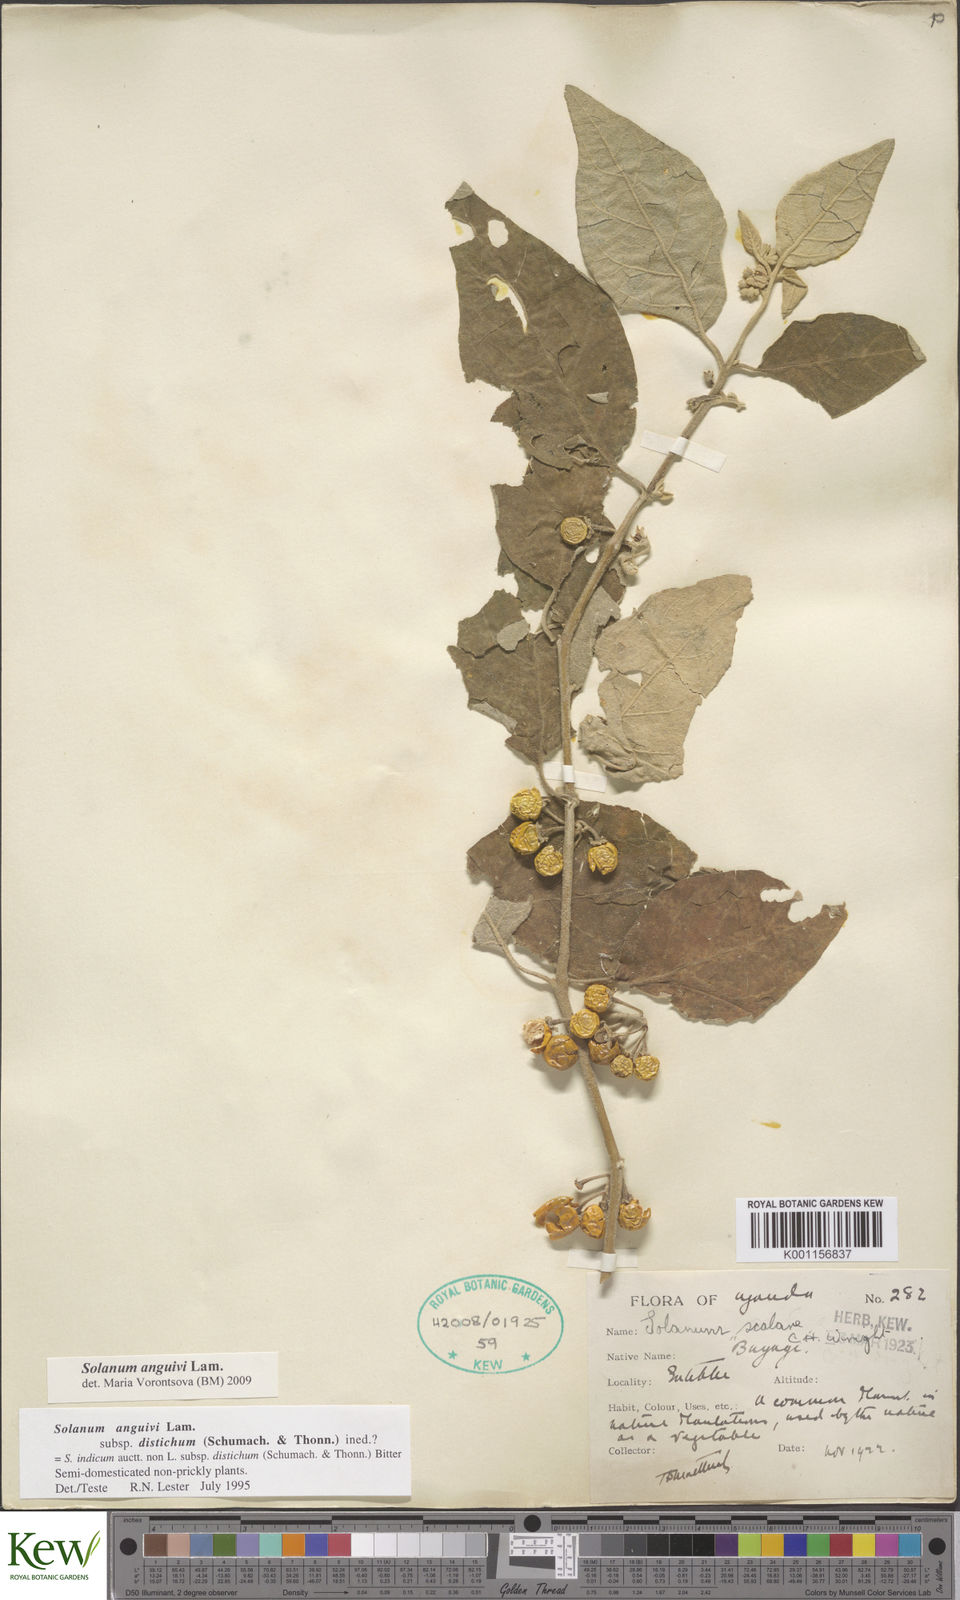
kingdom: Plantae
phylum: Tracheophyta
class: Magnoliopsida
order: Solanales
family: Solanaceae
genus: Solanum
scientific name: Solanum anguivi
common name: Forest bitterberry
